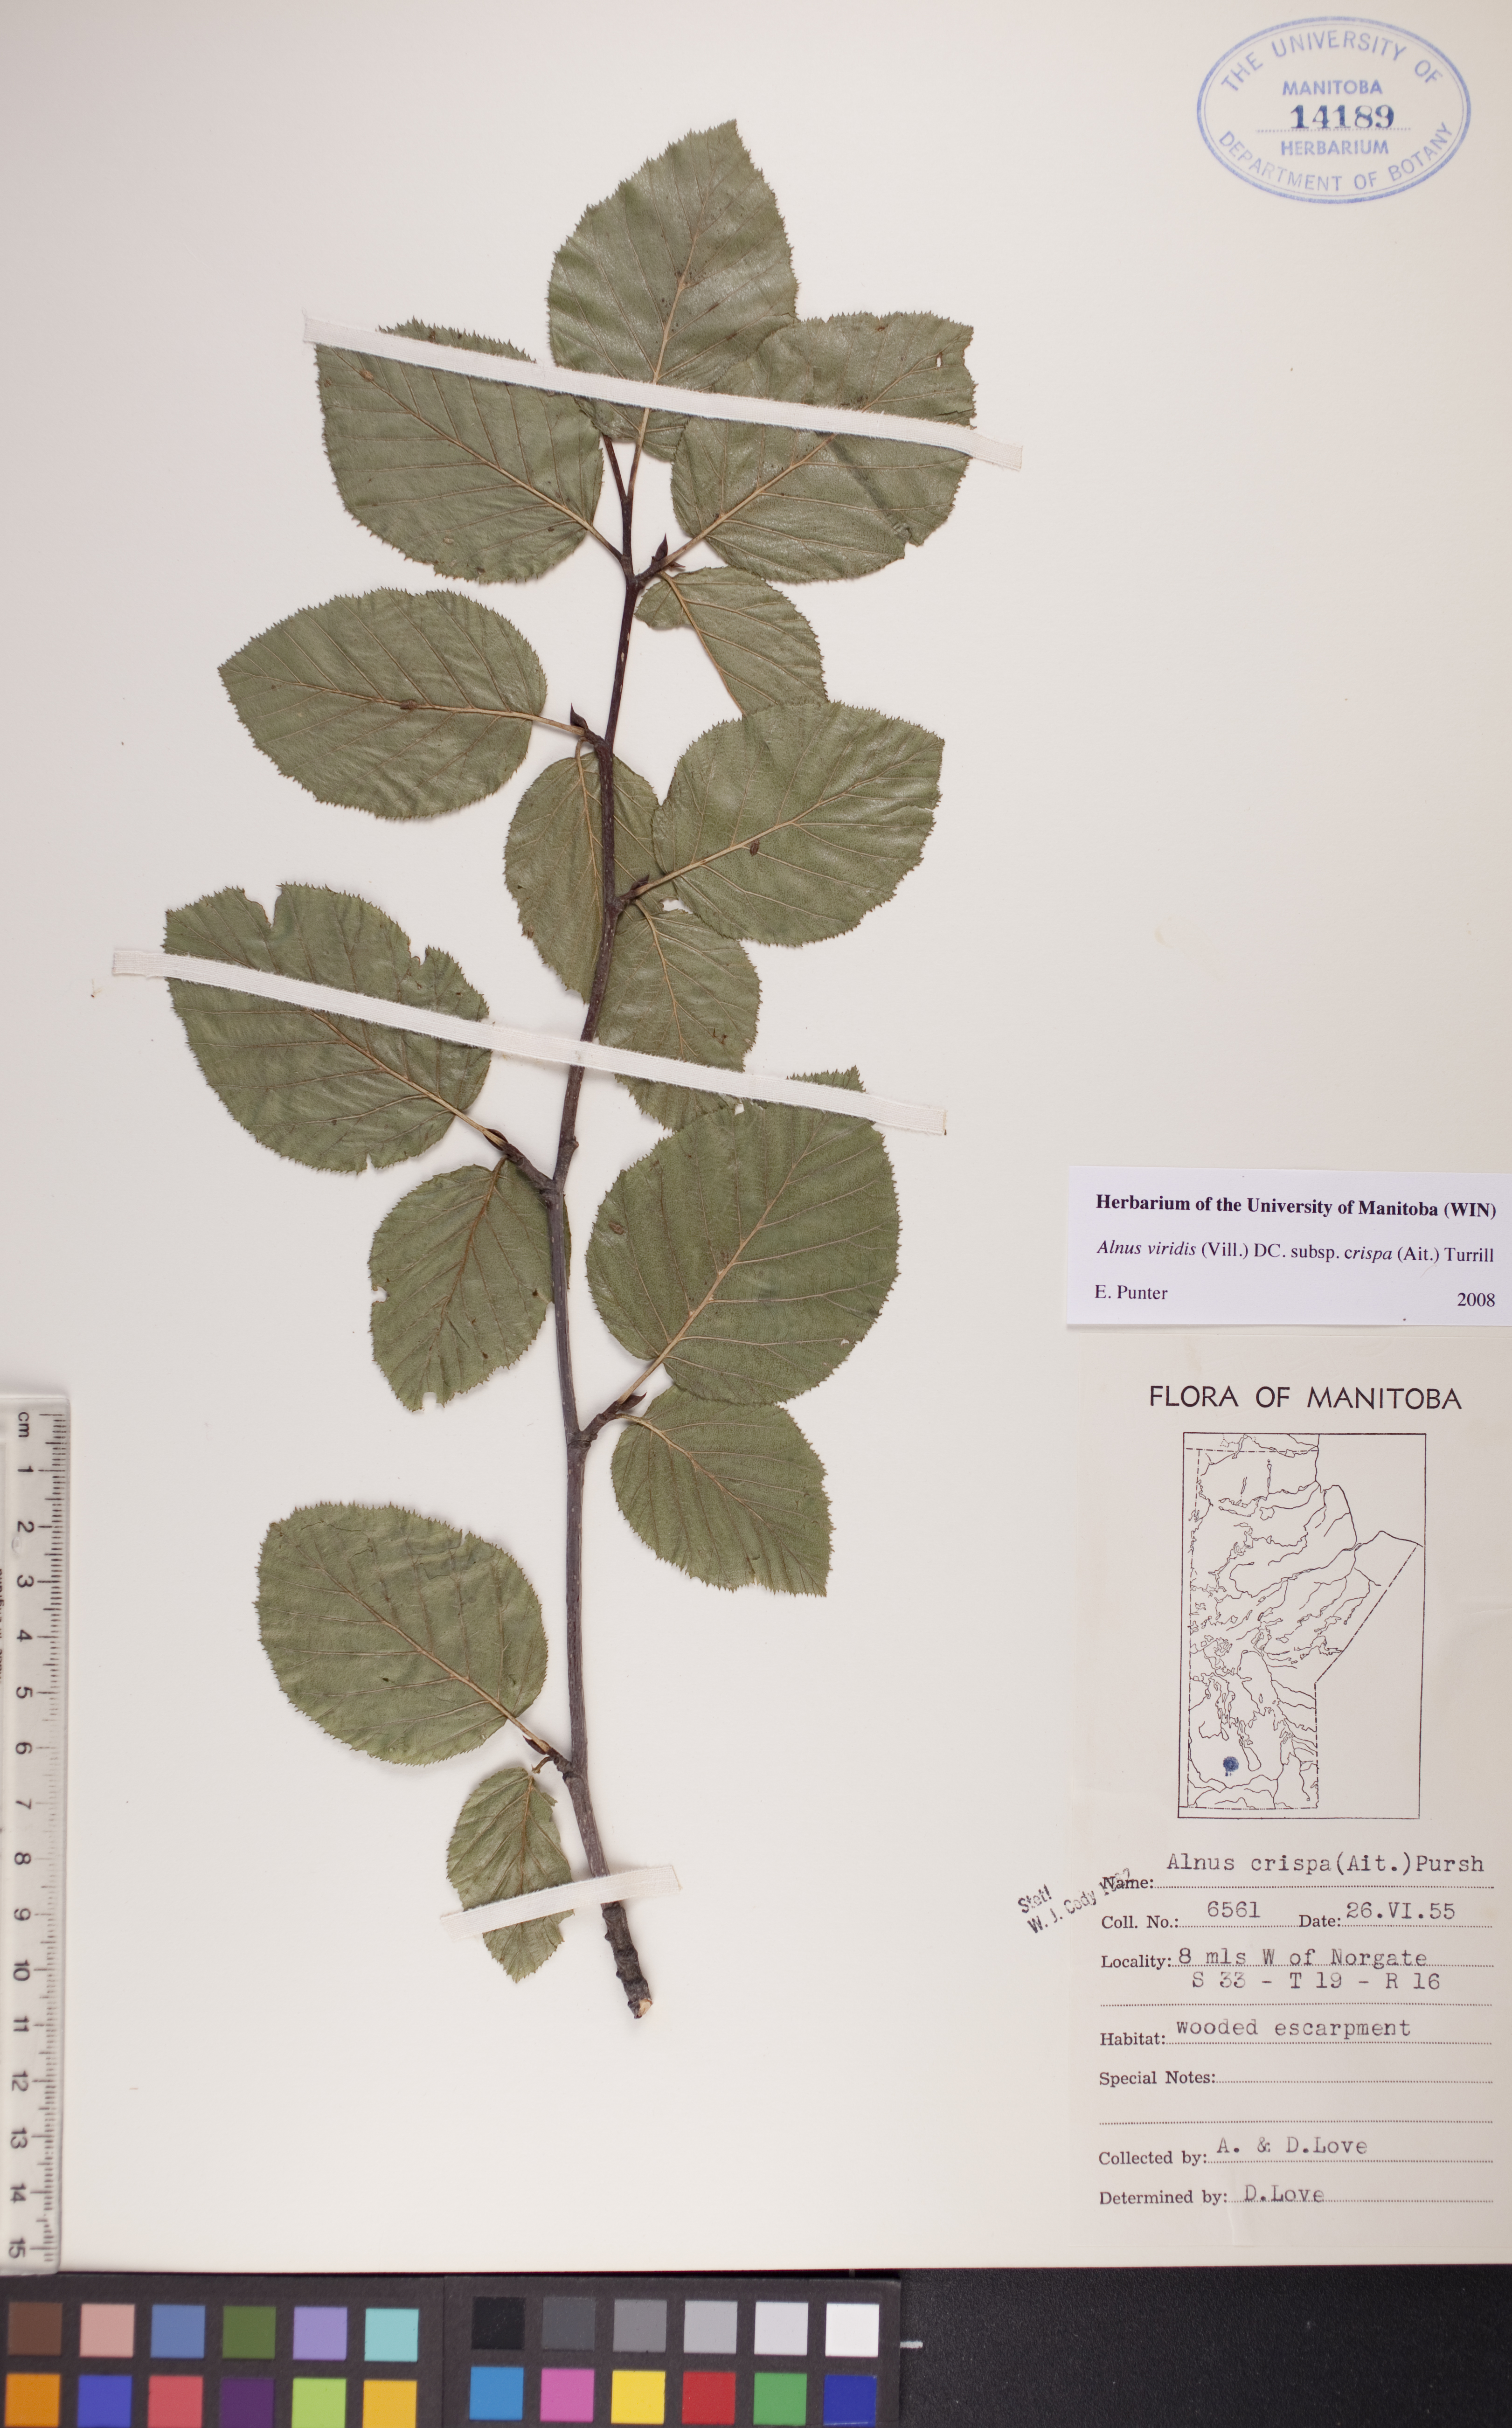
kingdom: Plantae
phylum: Tracheophyta
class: Magnoliopsida
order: Fagales
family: Betulaceae
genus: Alnus
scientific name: Alnus alnobetula
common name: Green alder
